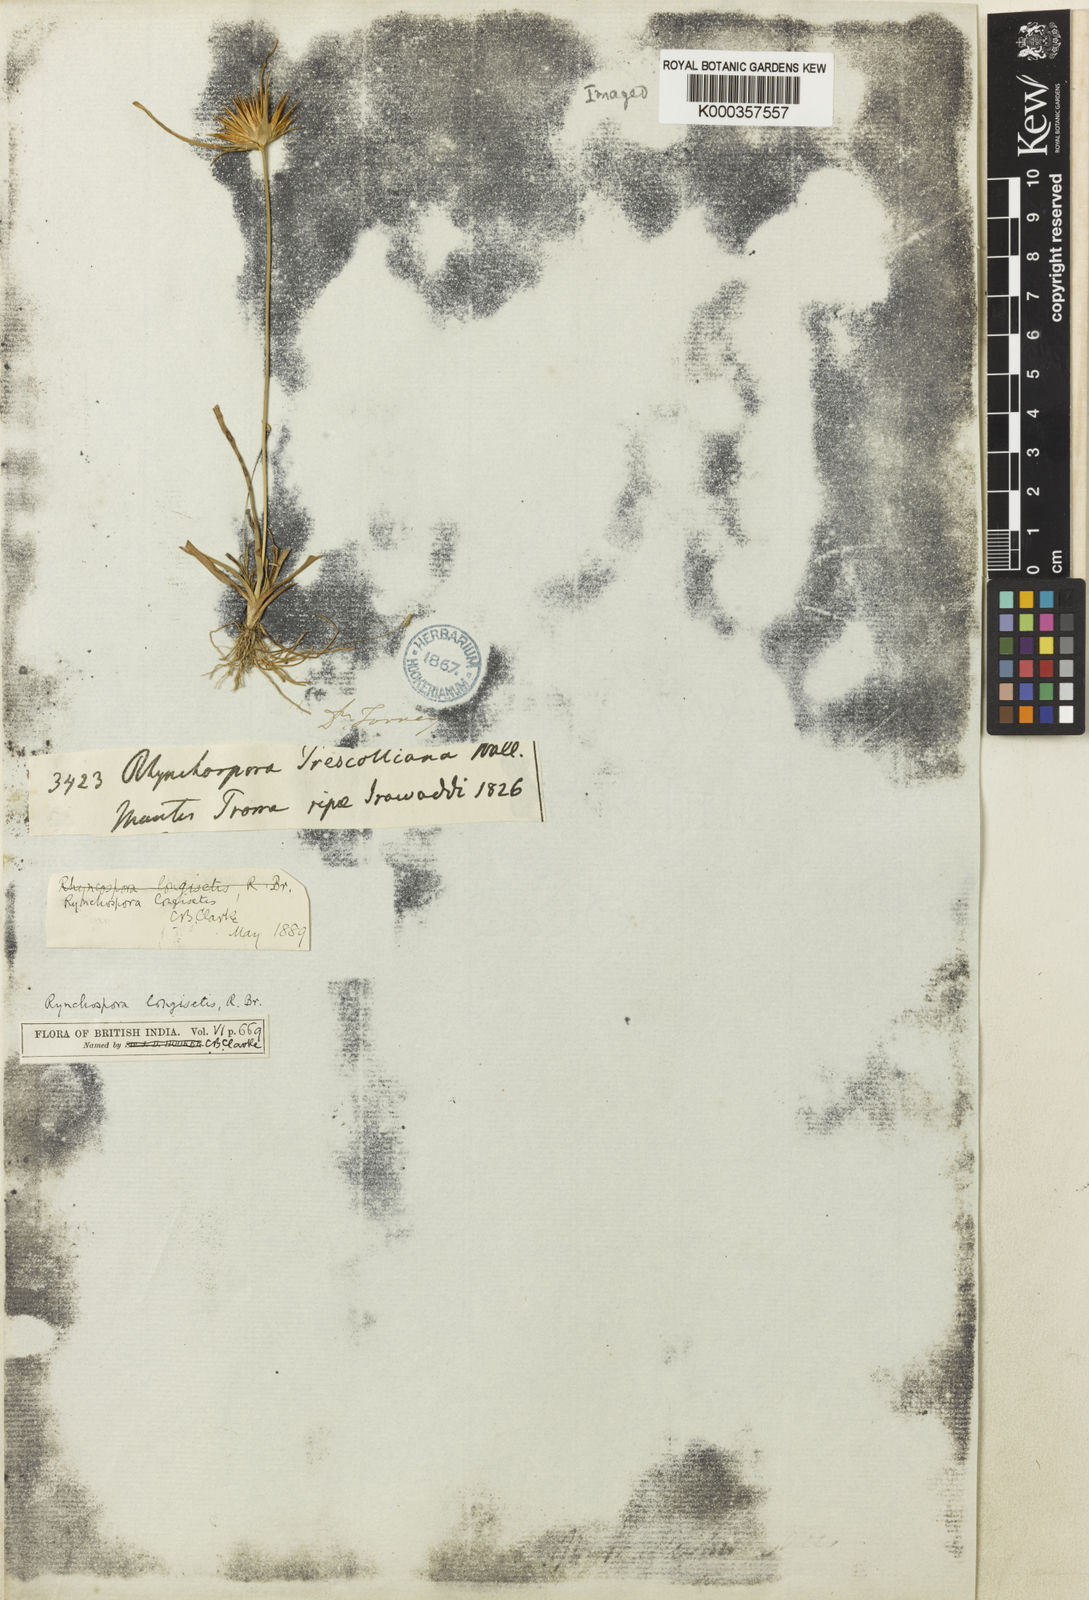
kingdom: Plantae
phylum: Tracheophyta
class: Liliopsida
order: Poales
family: Cyperaceae
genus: Rhynchospora
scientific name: Rhynchospora longisetis
